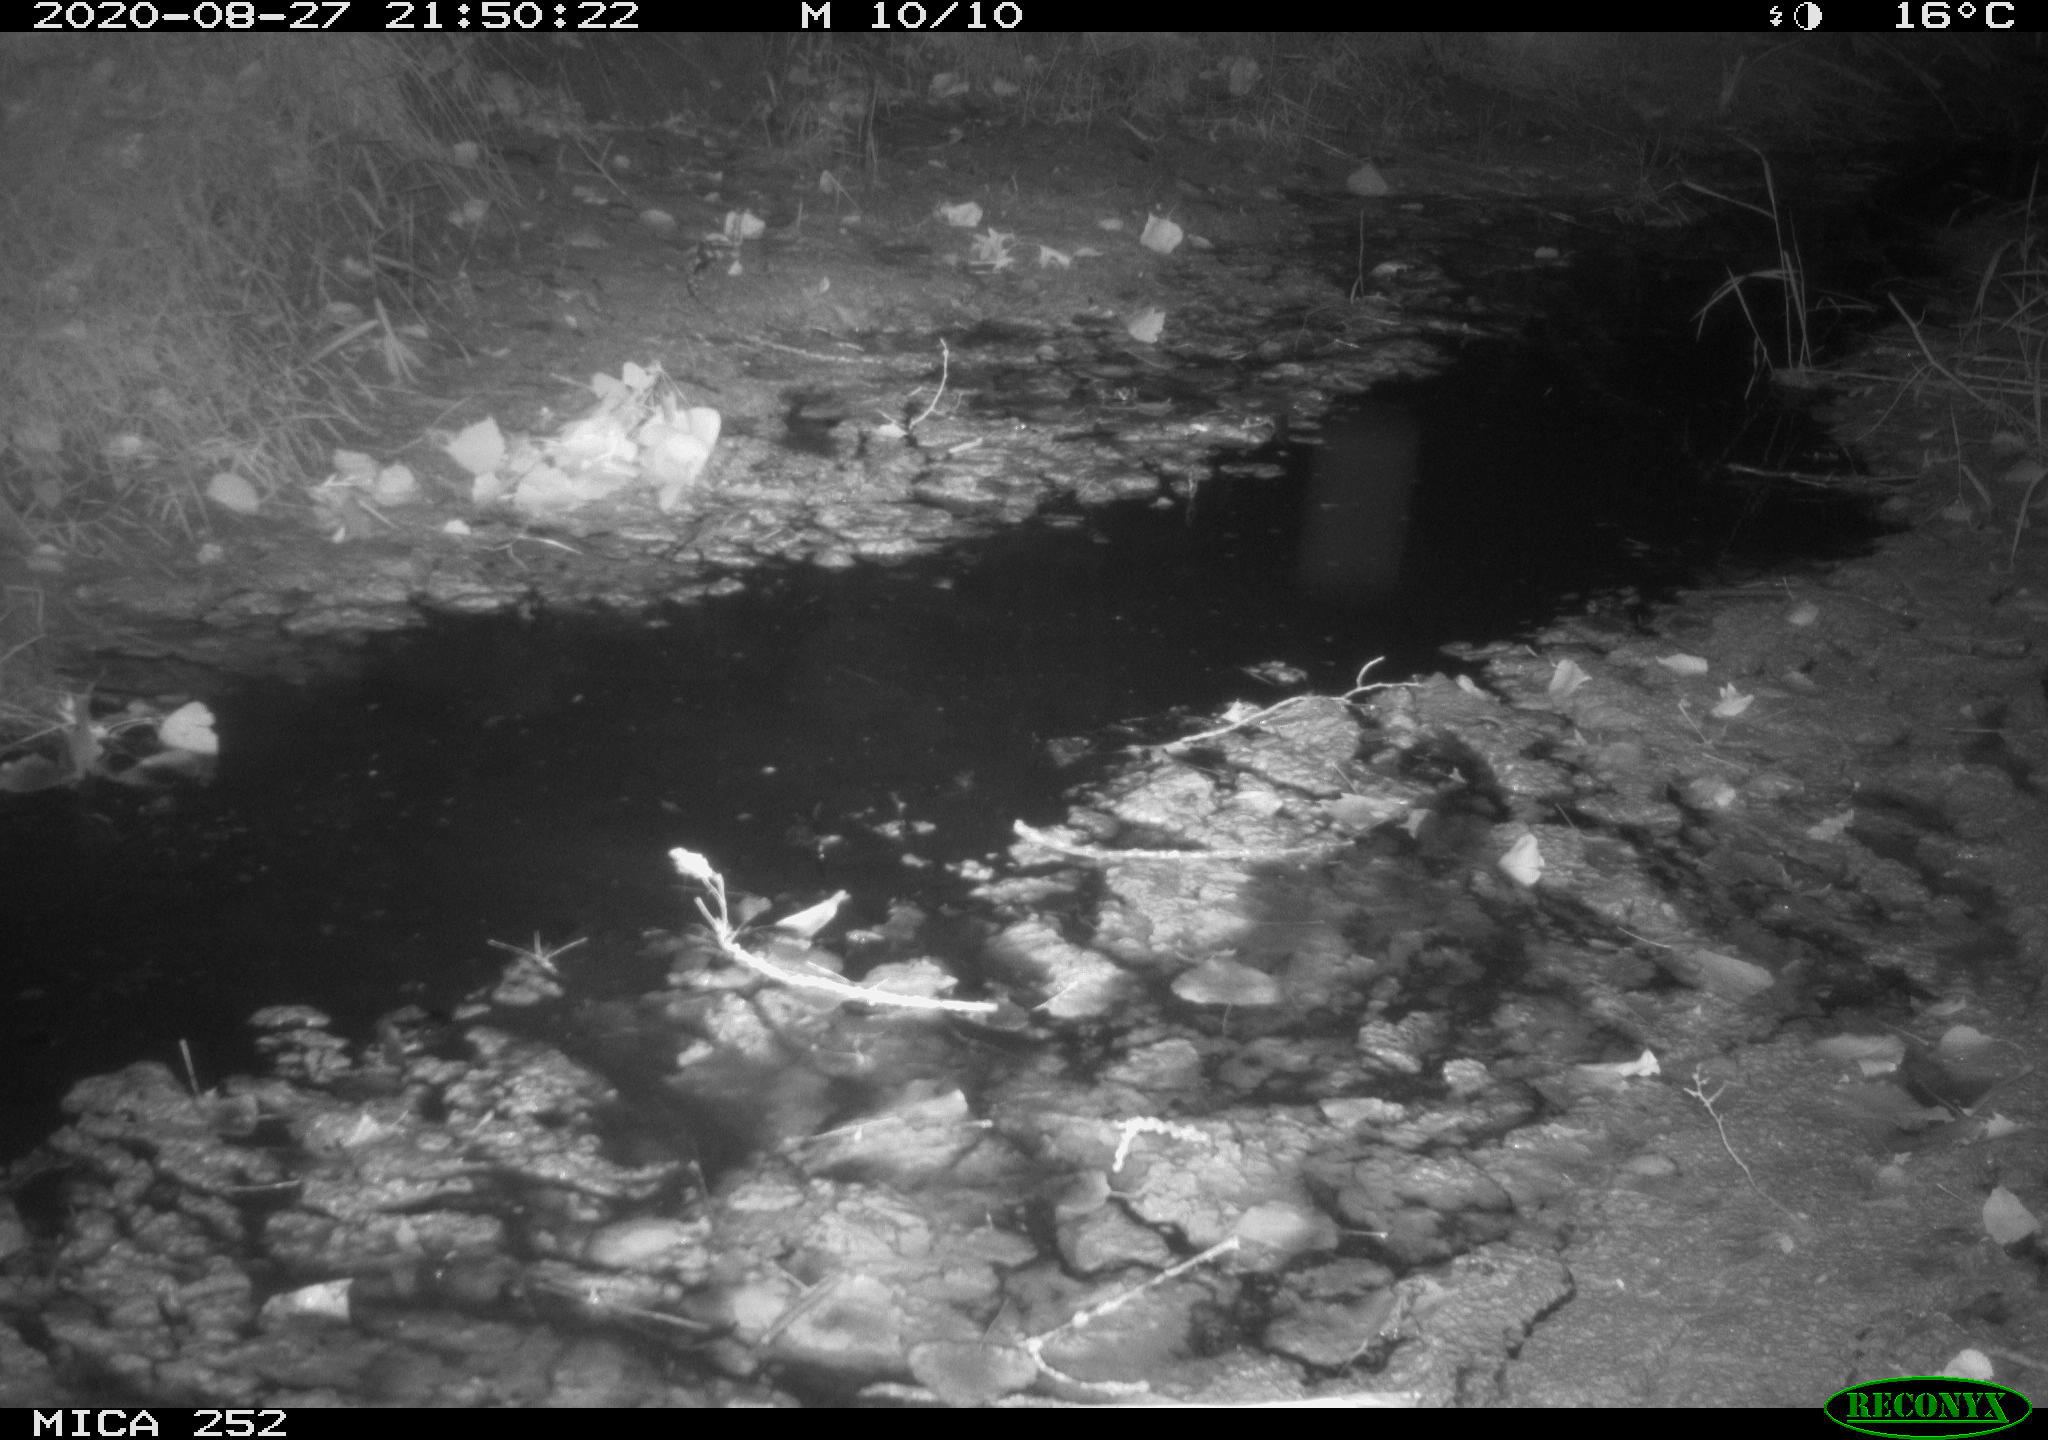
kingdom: Animalia
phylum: Chordata
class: Mammalia
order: Rodentia
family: Castoridae
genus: Castor
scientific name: Castor fiber
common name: Eurasian beaver
